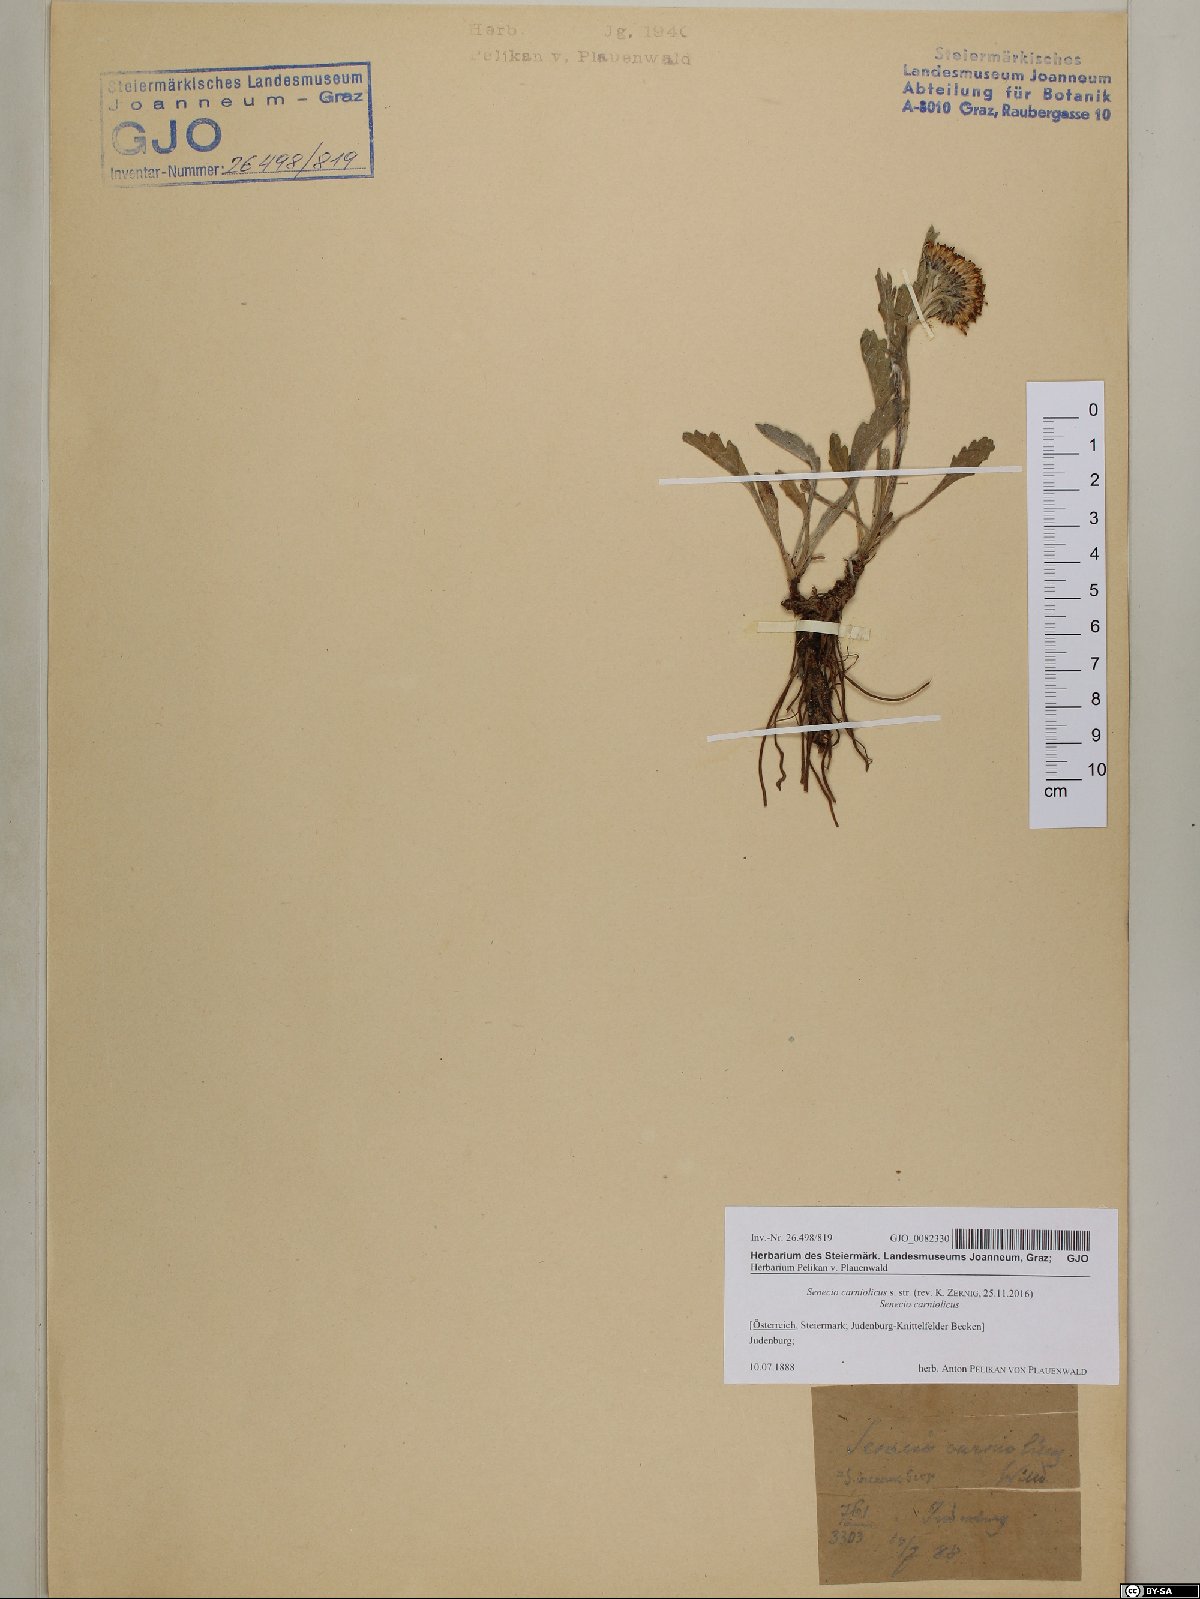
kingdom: Plantae
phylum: Tracheophyta
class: Magnoliopsida
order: Asterales
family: Asteraceae
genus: Jacobaea
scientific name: Jacobaea carniolica
